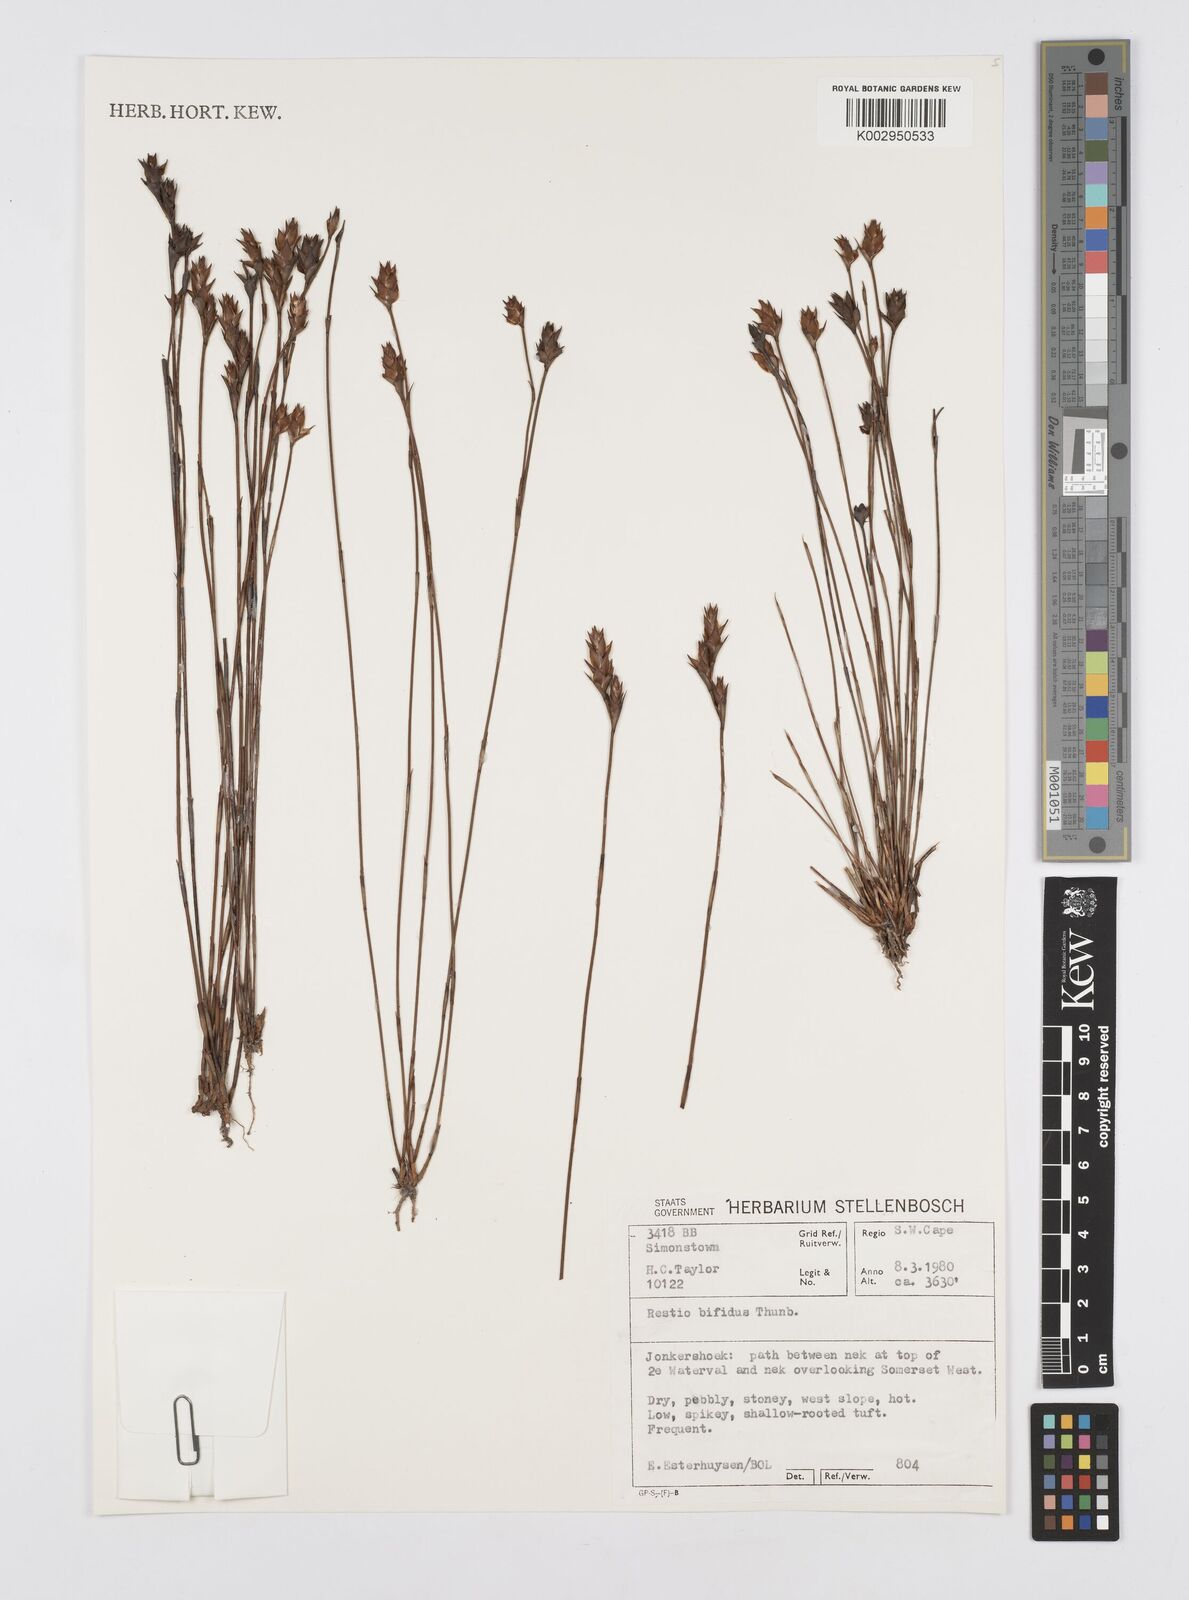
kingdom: Plantae
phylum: Tracheophyta
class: Liliopsida
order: Poales
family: Restionaceae
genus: Restio
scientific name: Restio bifidus
